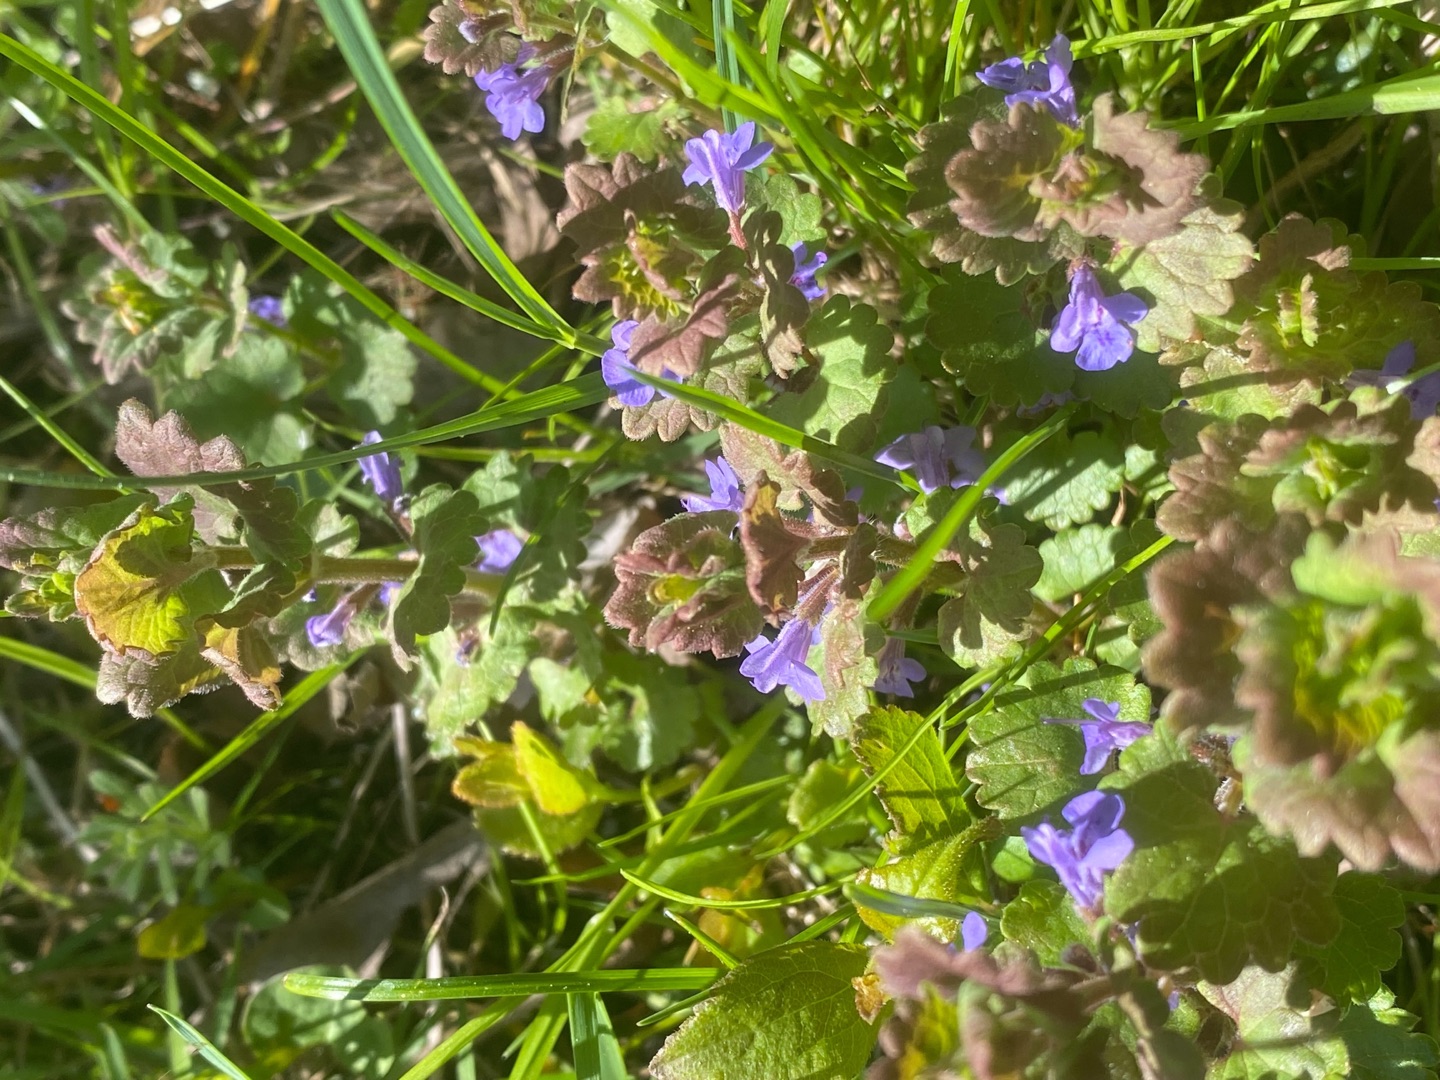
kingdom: Plantae
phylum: Tracheophyta
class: Magnoliopsida
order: Lamiales
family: Lamiaceae
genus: Glechoma
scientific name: Glechoma hederacea
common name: Korsknap
